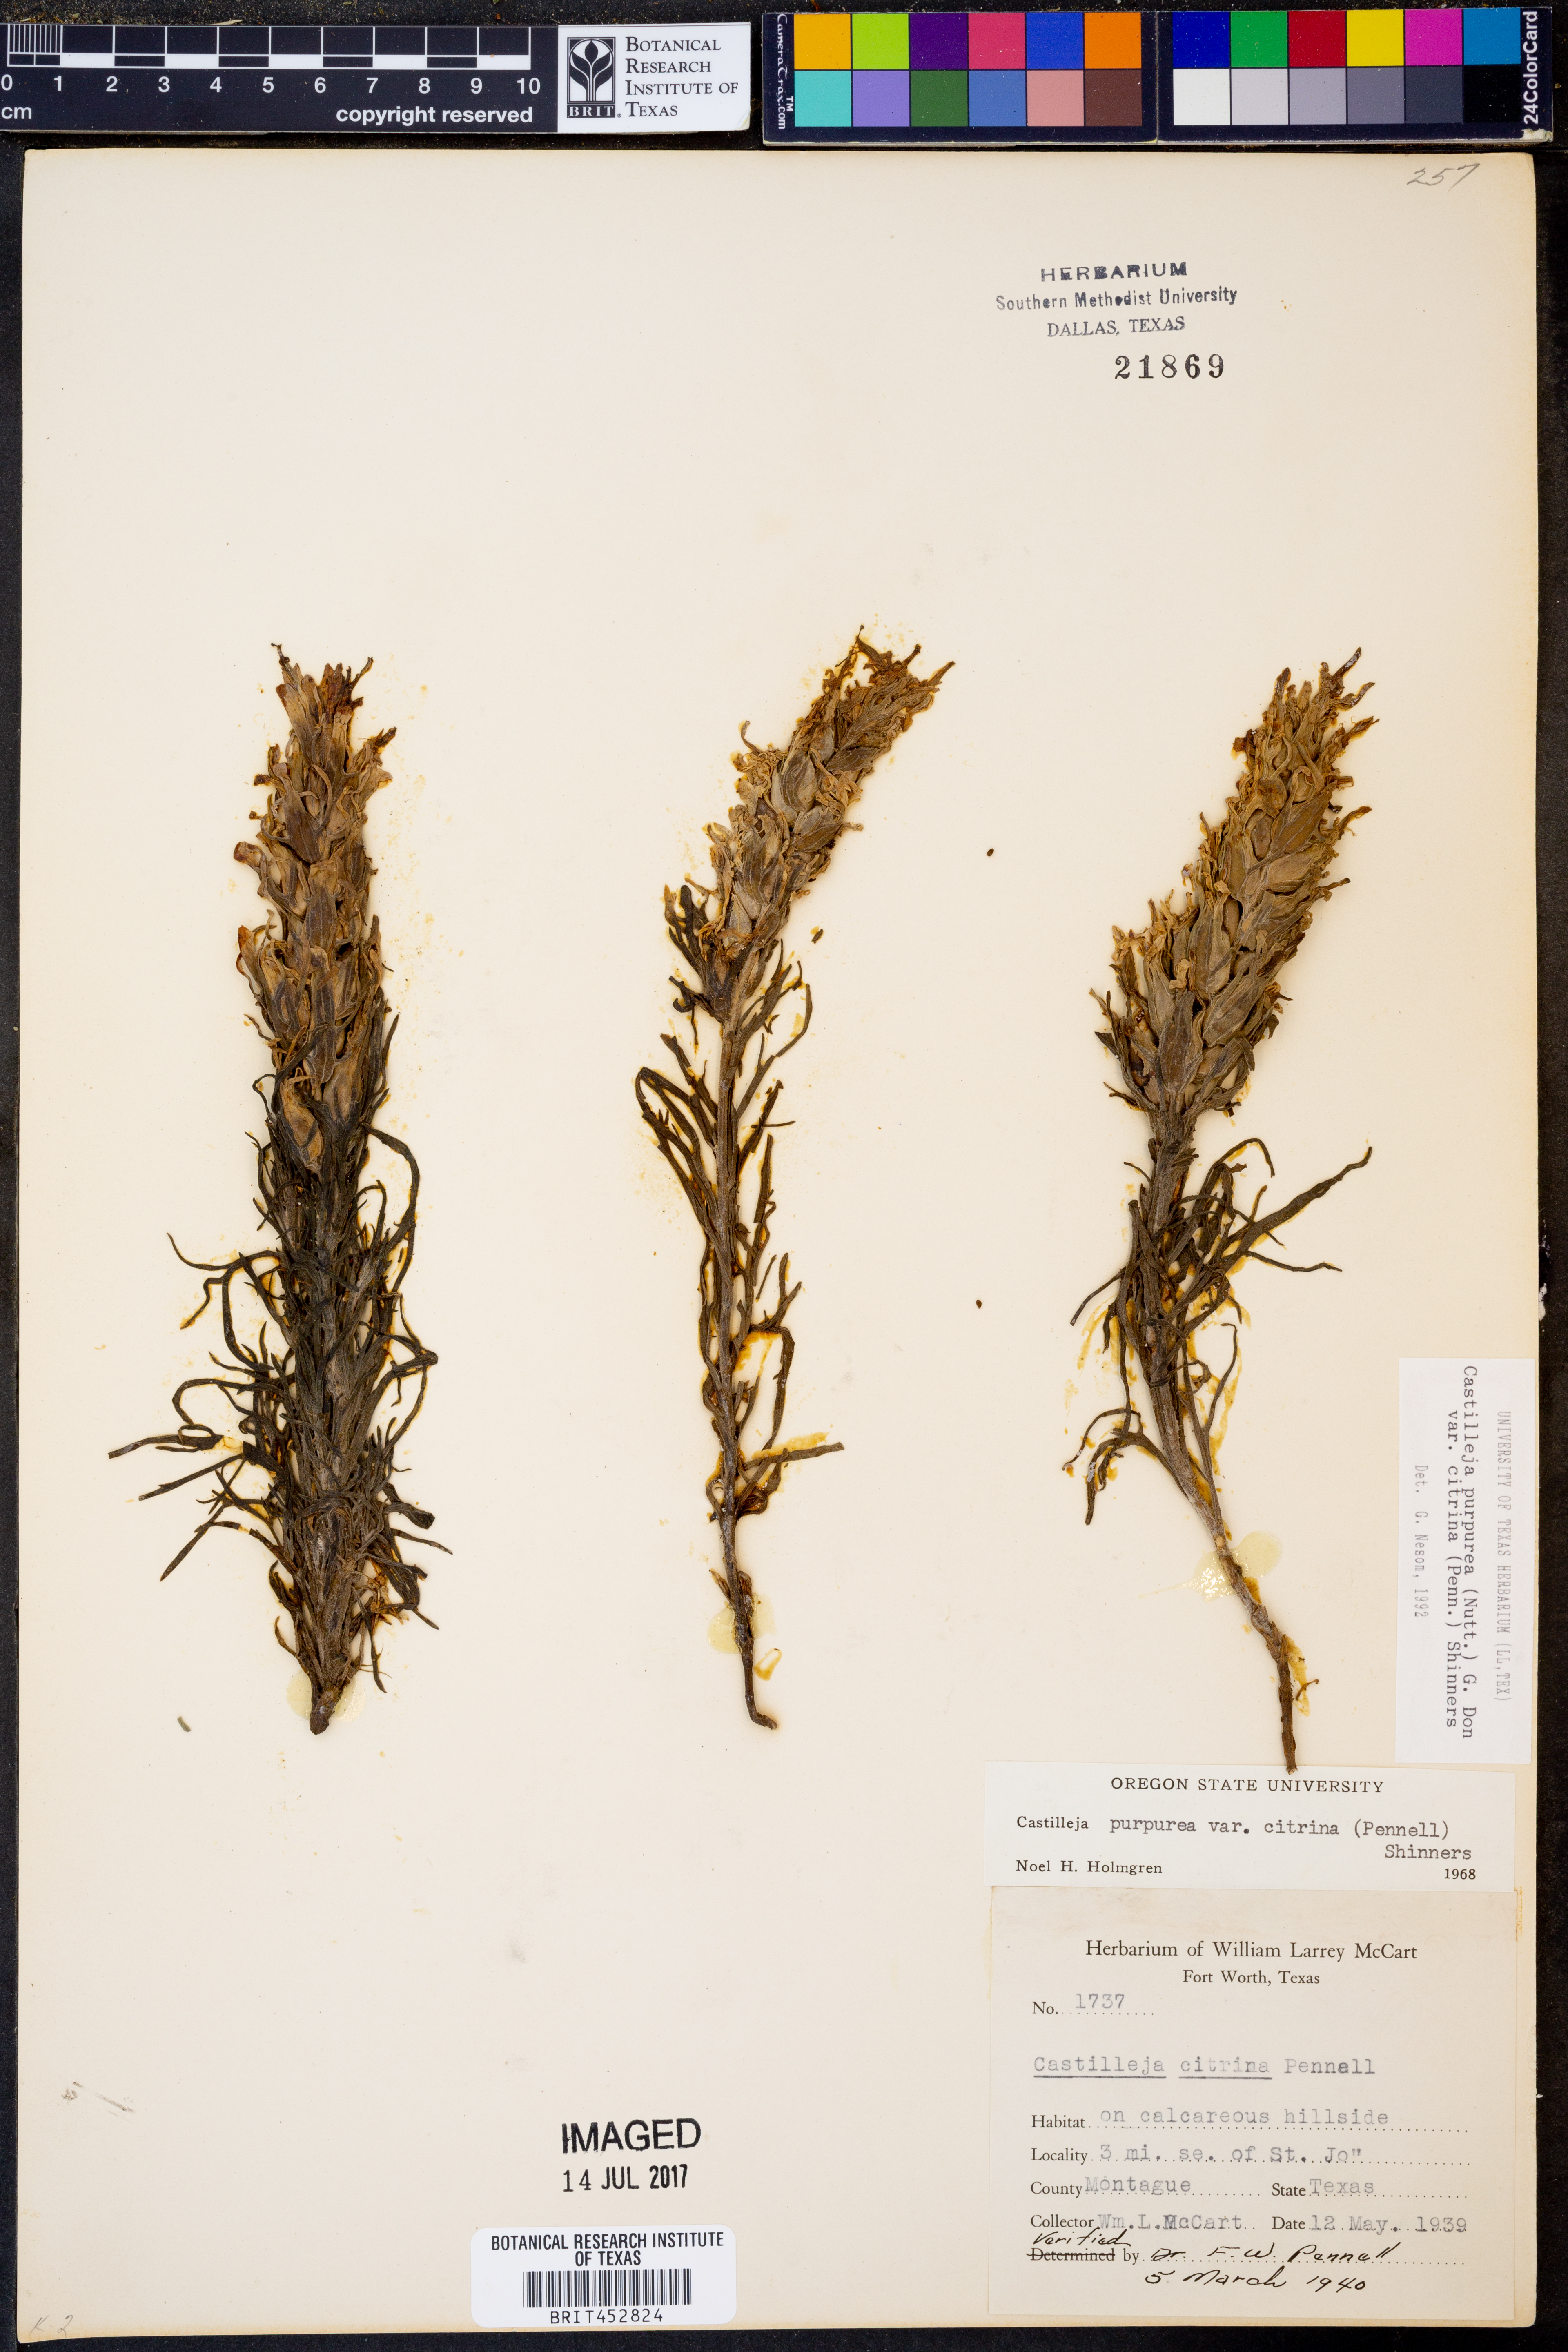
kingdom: Plantae
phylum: Tracheophyta
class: Magnoliopsida
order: Lamiales
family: Orobanchaceae
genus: Castilleja
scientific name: Castilleja citrina
